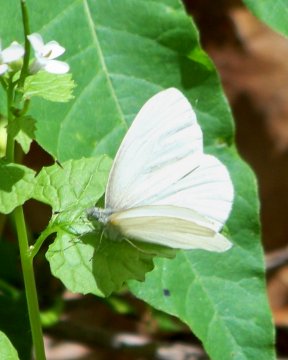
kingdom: Animalia
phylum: Arthropoda
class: Insecta
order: Lepidoptera
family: Pieridae
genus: Pieris
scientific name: Pieris virginiensis
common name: West Virginia White
